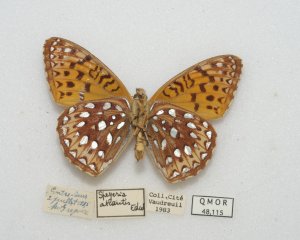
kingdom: Animalia
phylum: Arthropoda
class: Insecta
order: Lepidoptera
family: Nymphalidae
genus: Speyeria
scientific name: Speyeria aphrodite
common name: Aphrodite Fritillary
